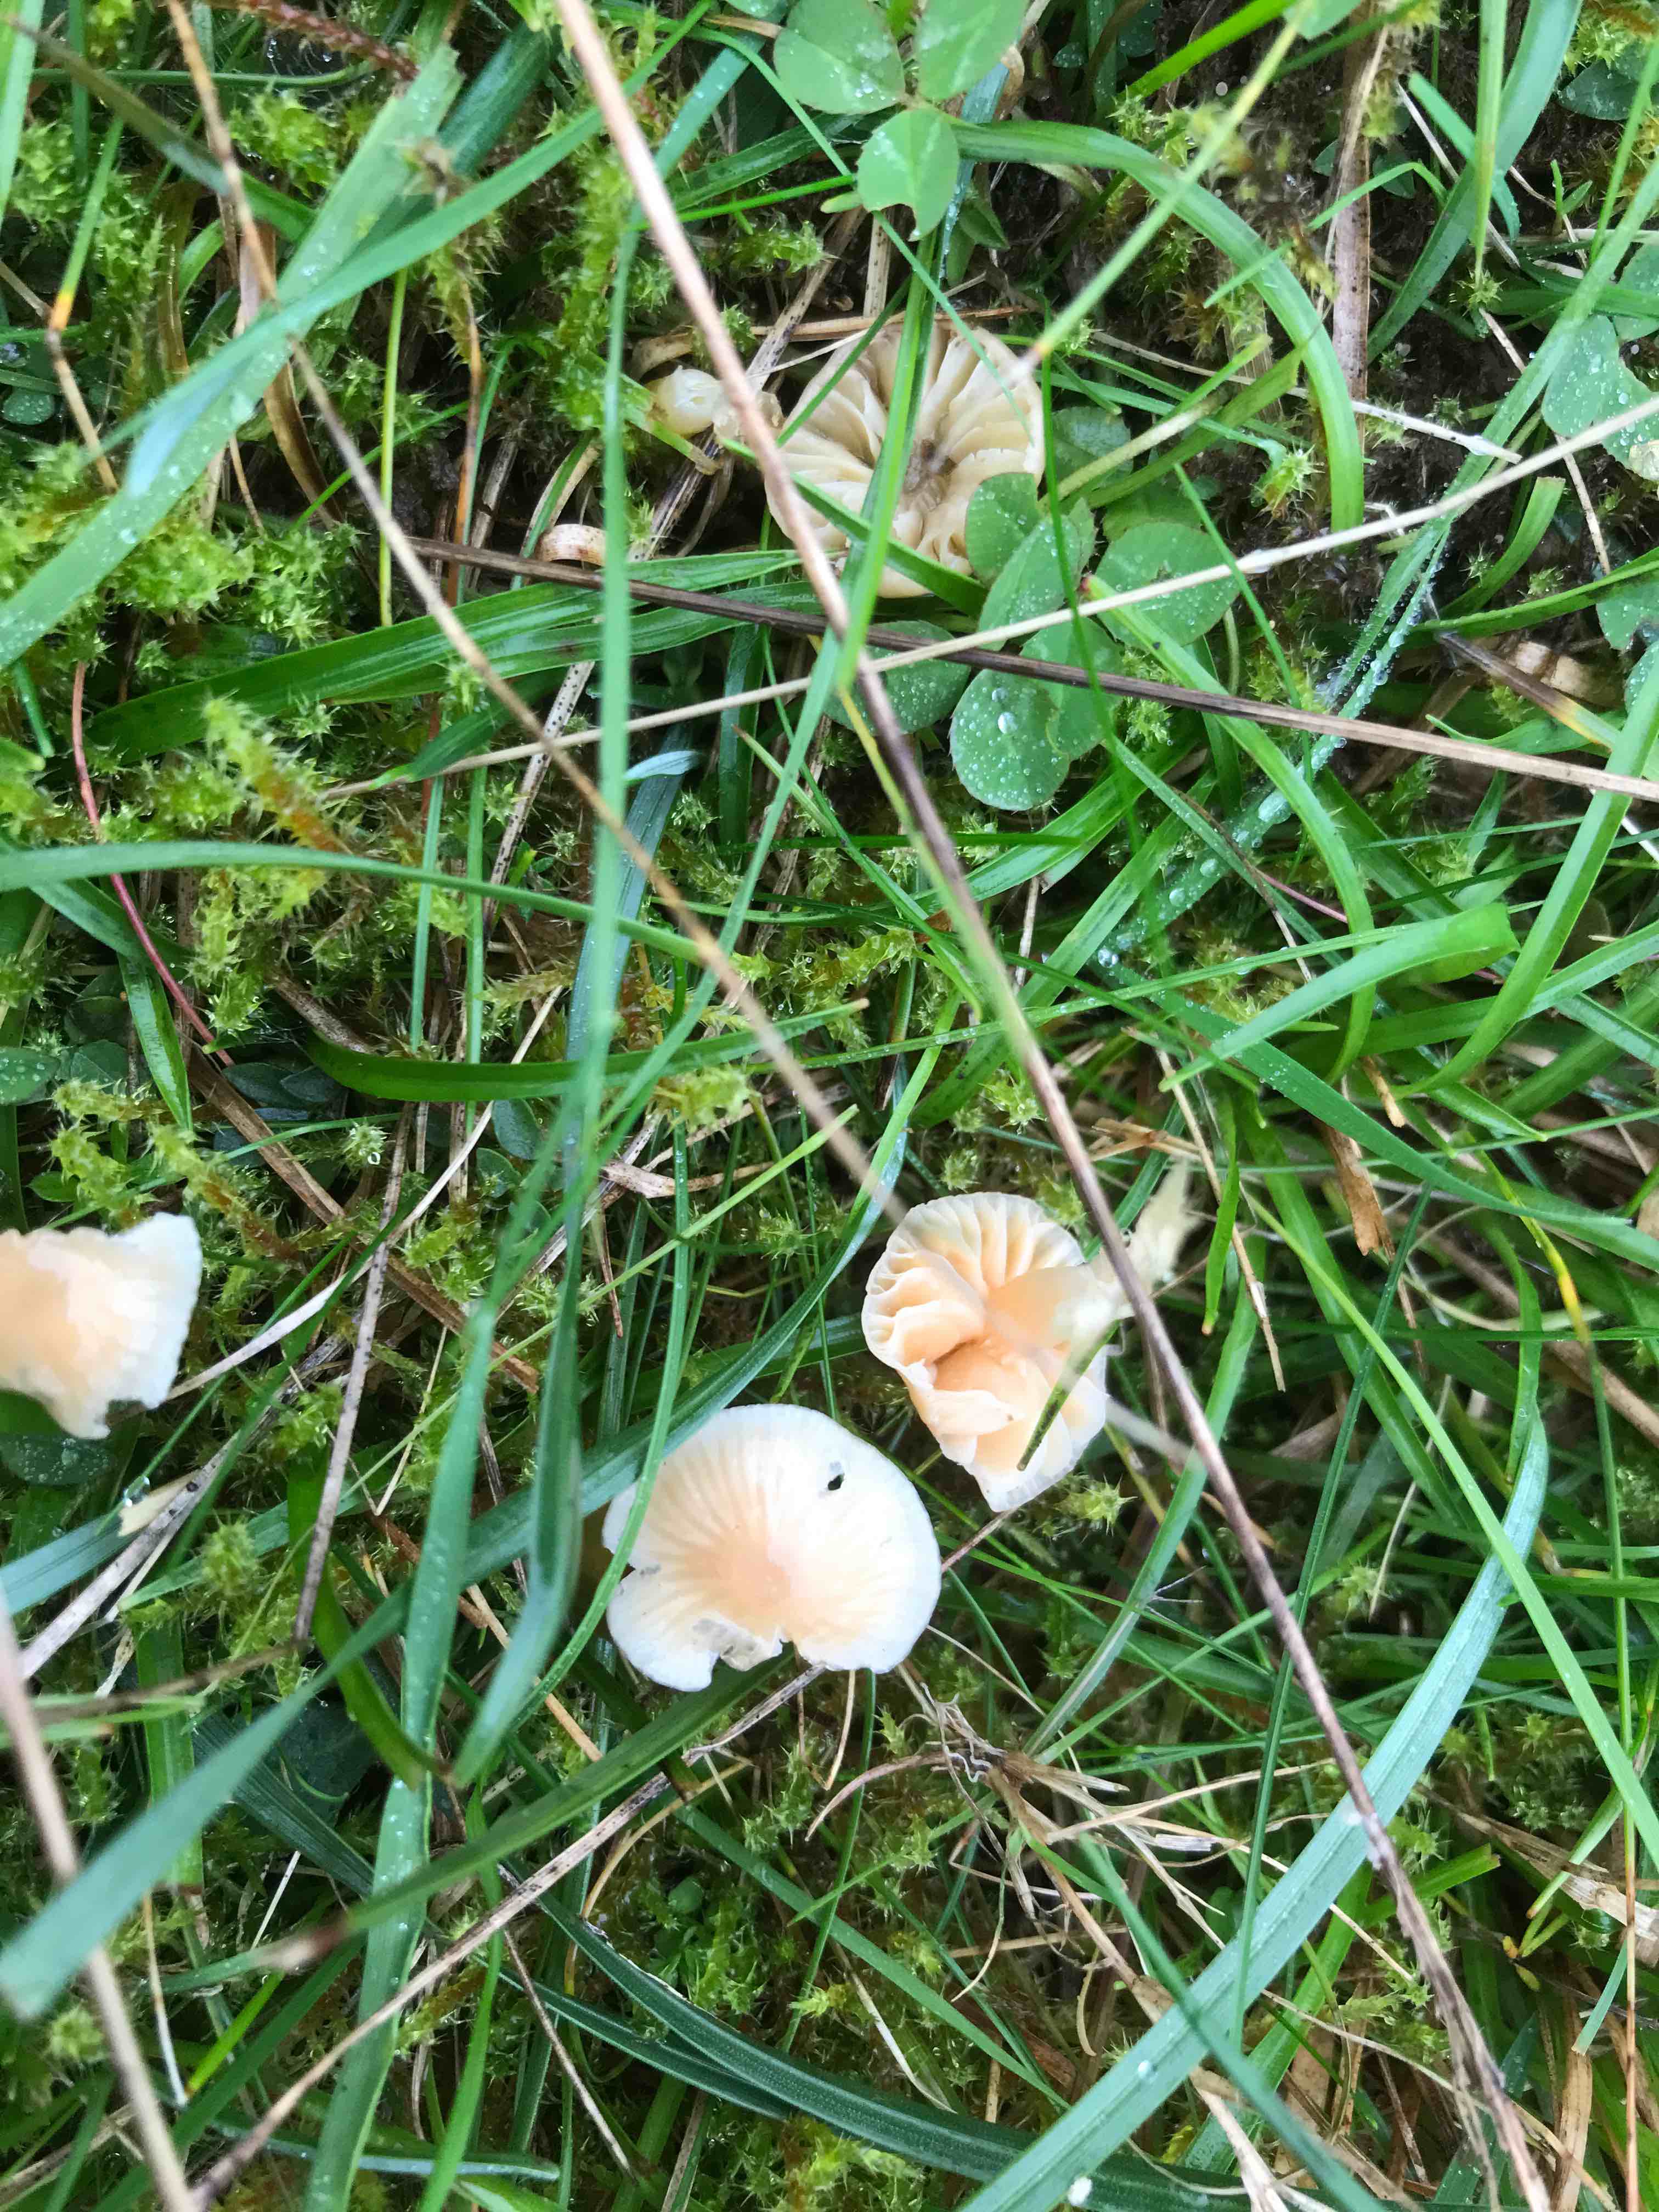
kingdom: Fungi
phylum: Basidiomycota
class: Agaricomycetes
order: Agaricales
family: Hygrophoraceae
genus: Gliophorus
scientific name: Gliophorus
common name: vokshat
